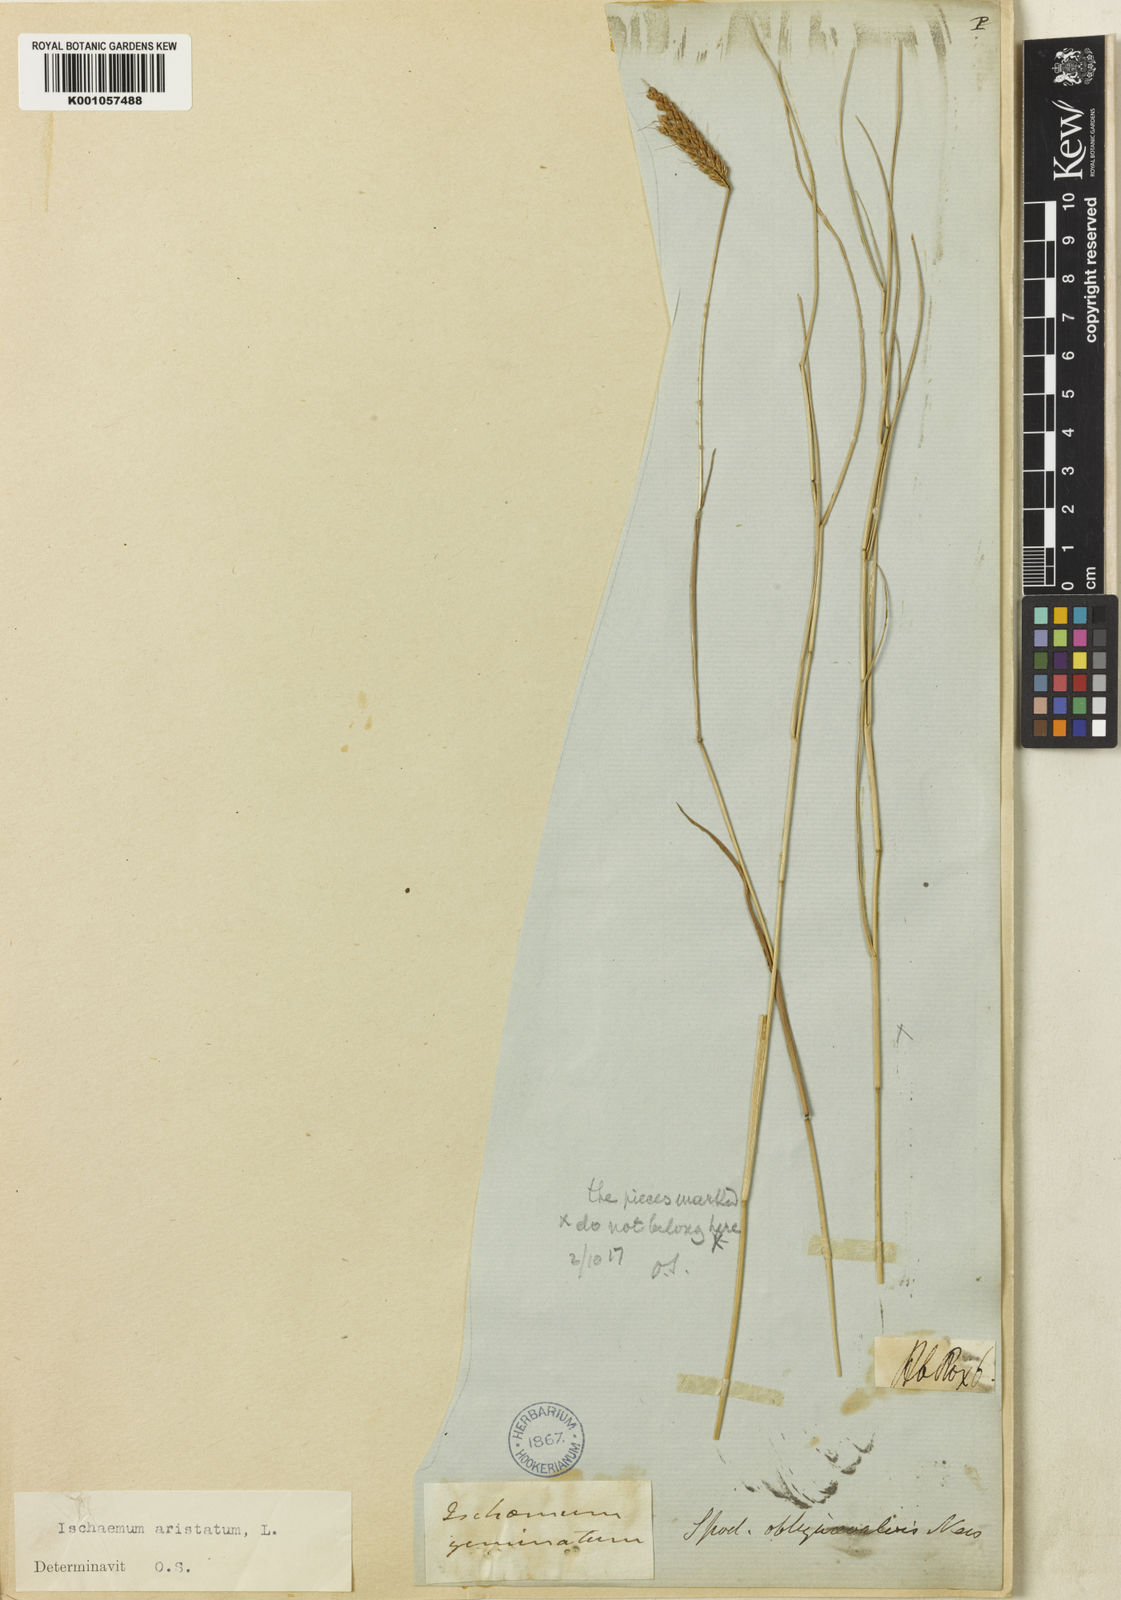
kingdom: Plantae
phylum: Tracheophyta
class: Liliopsida
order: Poales
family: Poaceae
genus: Polytrias
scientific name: Polytrias indica
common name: Indian murainagrass
